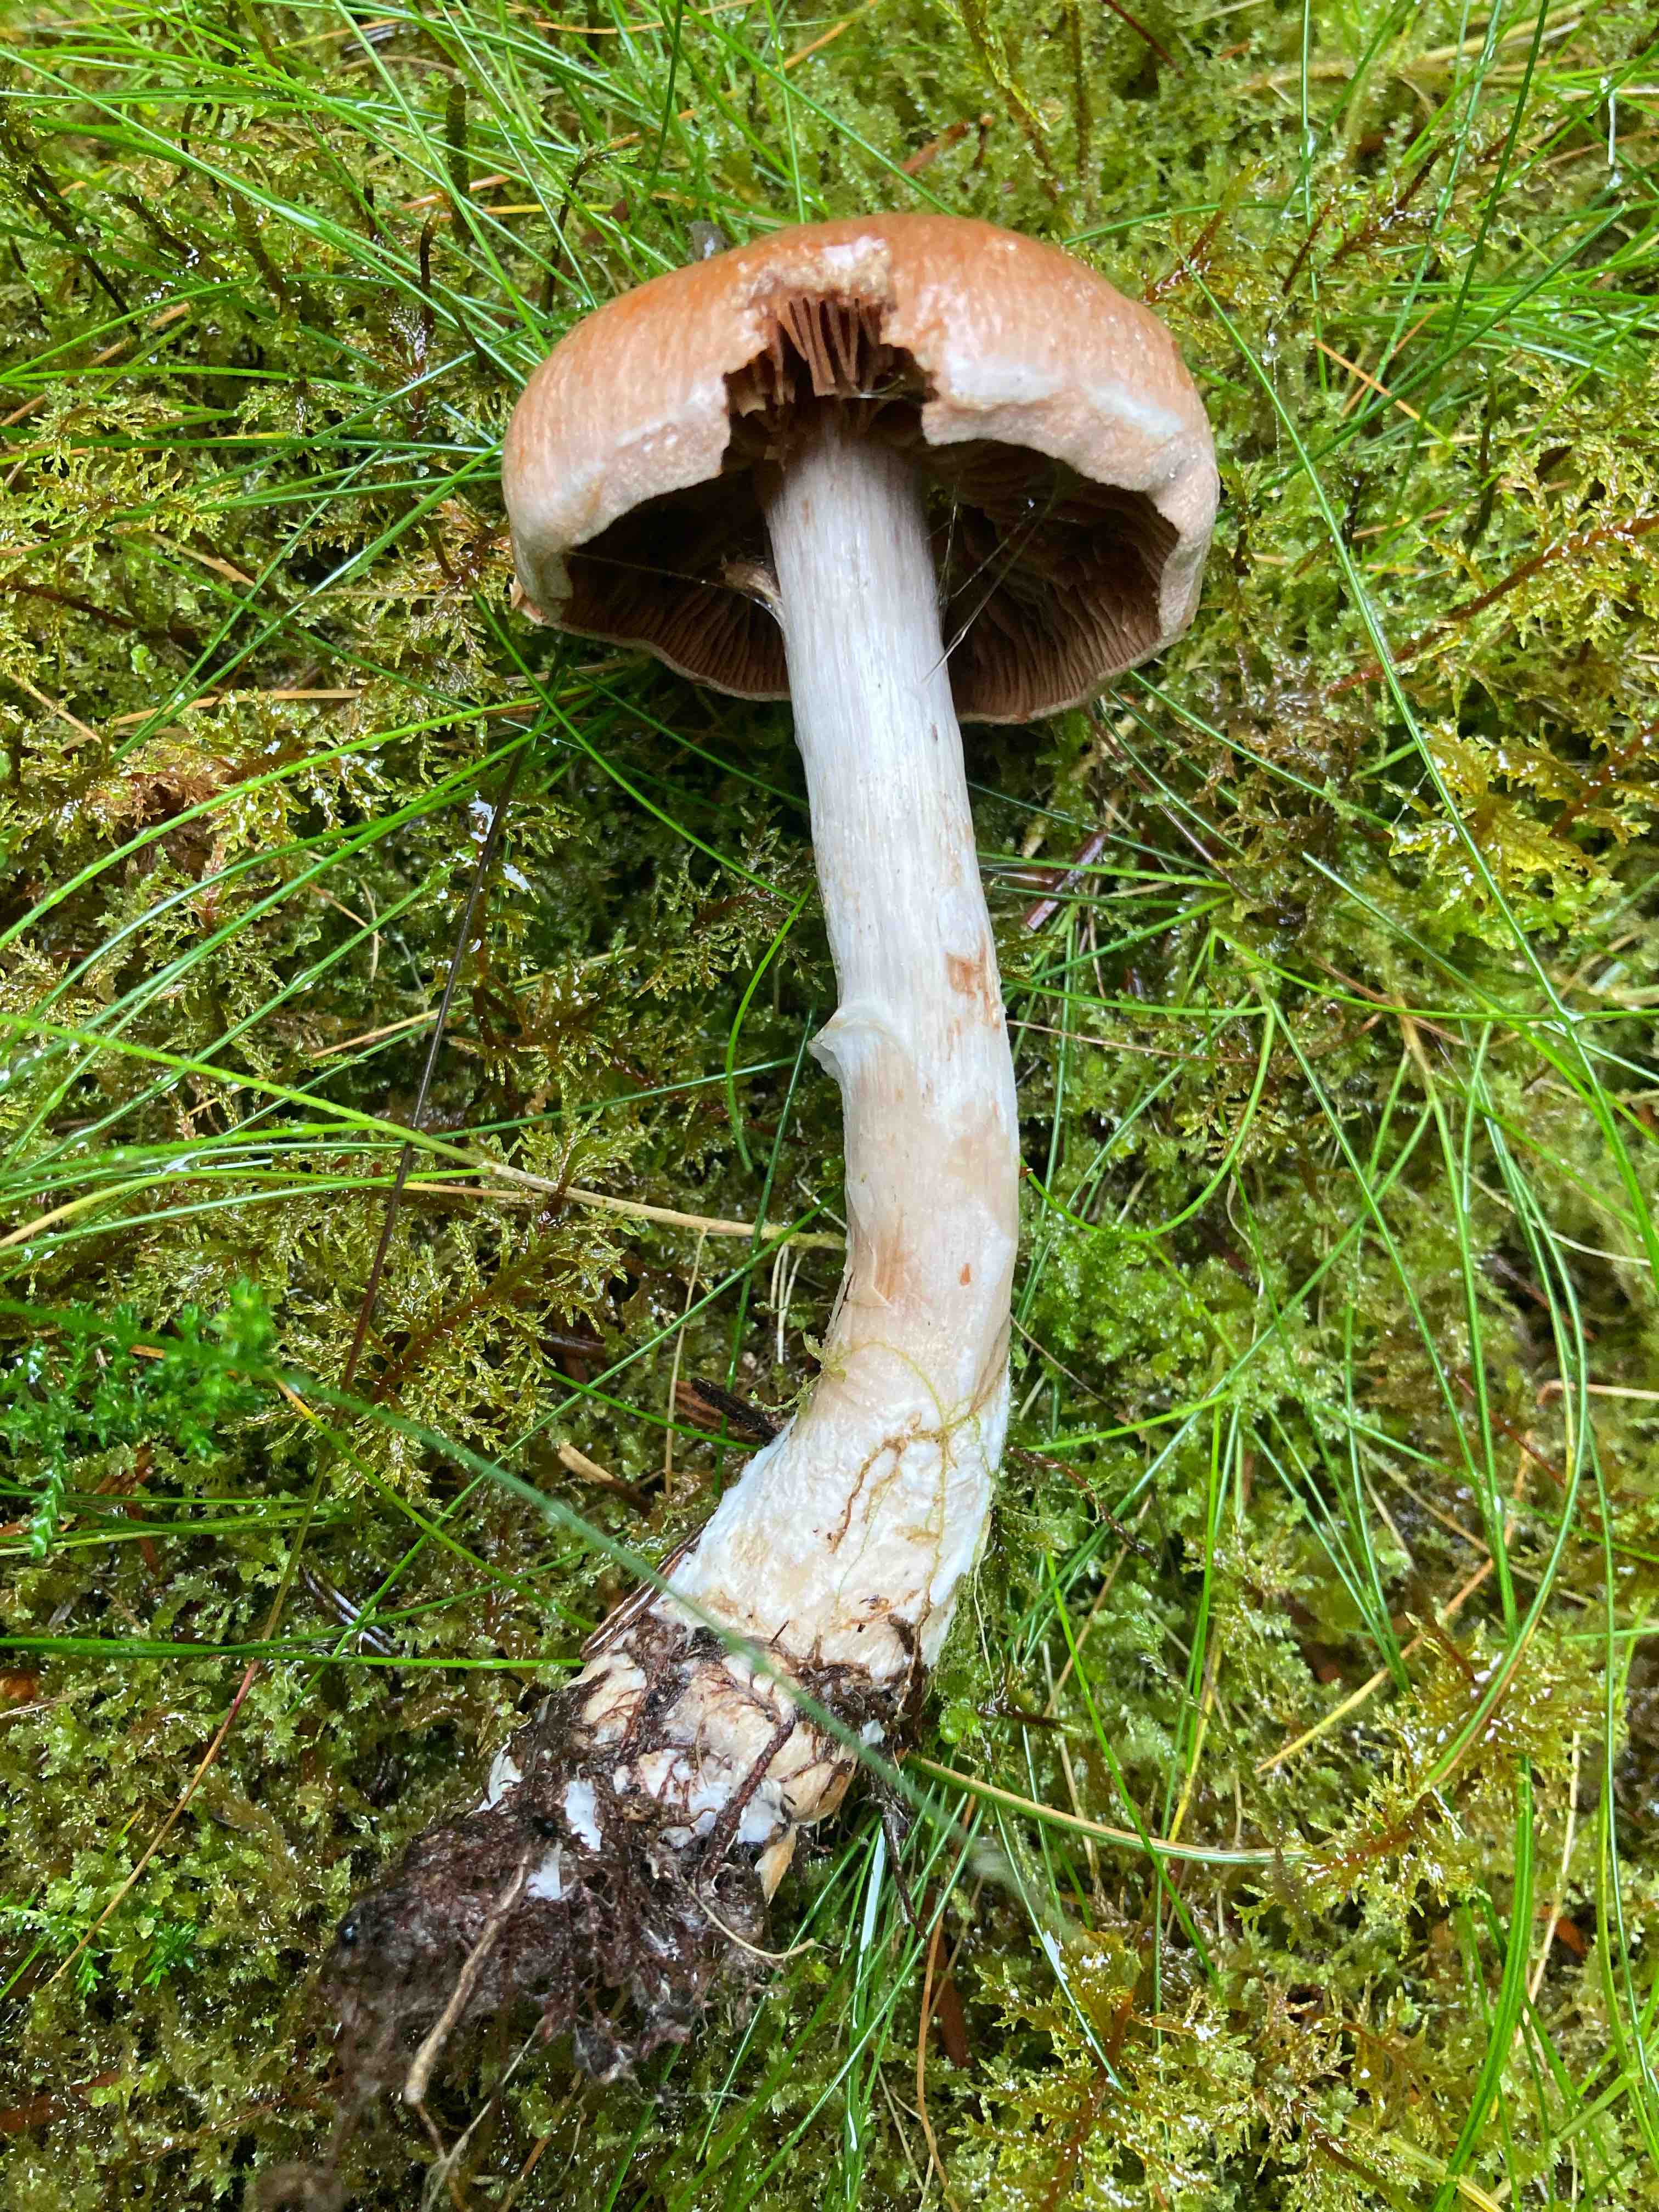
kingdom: Fungi
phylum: Basidiomycota
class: Agaricomycetes
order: Agaricales
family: Cortinariaceae
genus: Cortinarius
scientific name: Cortinarius laniger
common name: teglbladet slørhat
